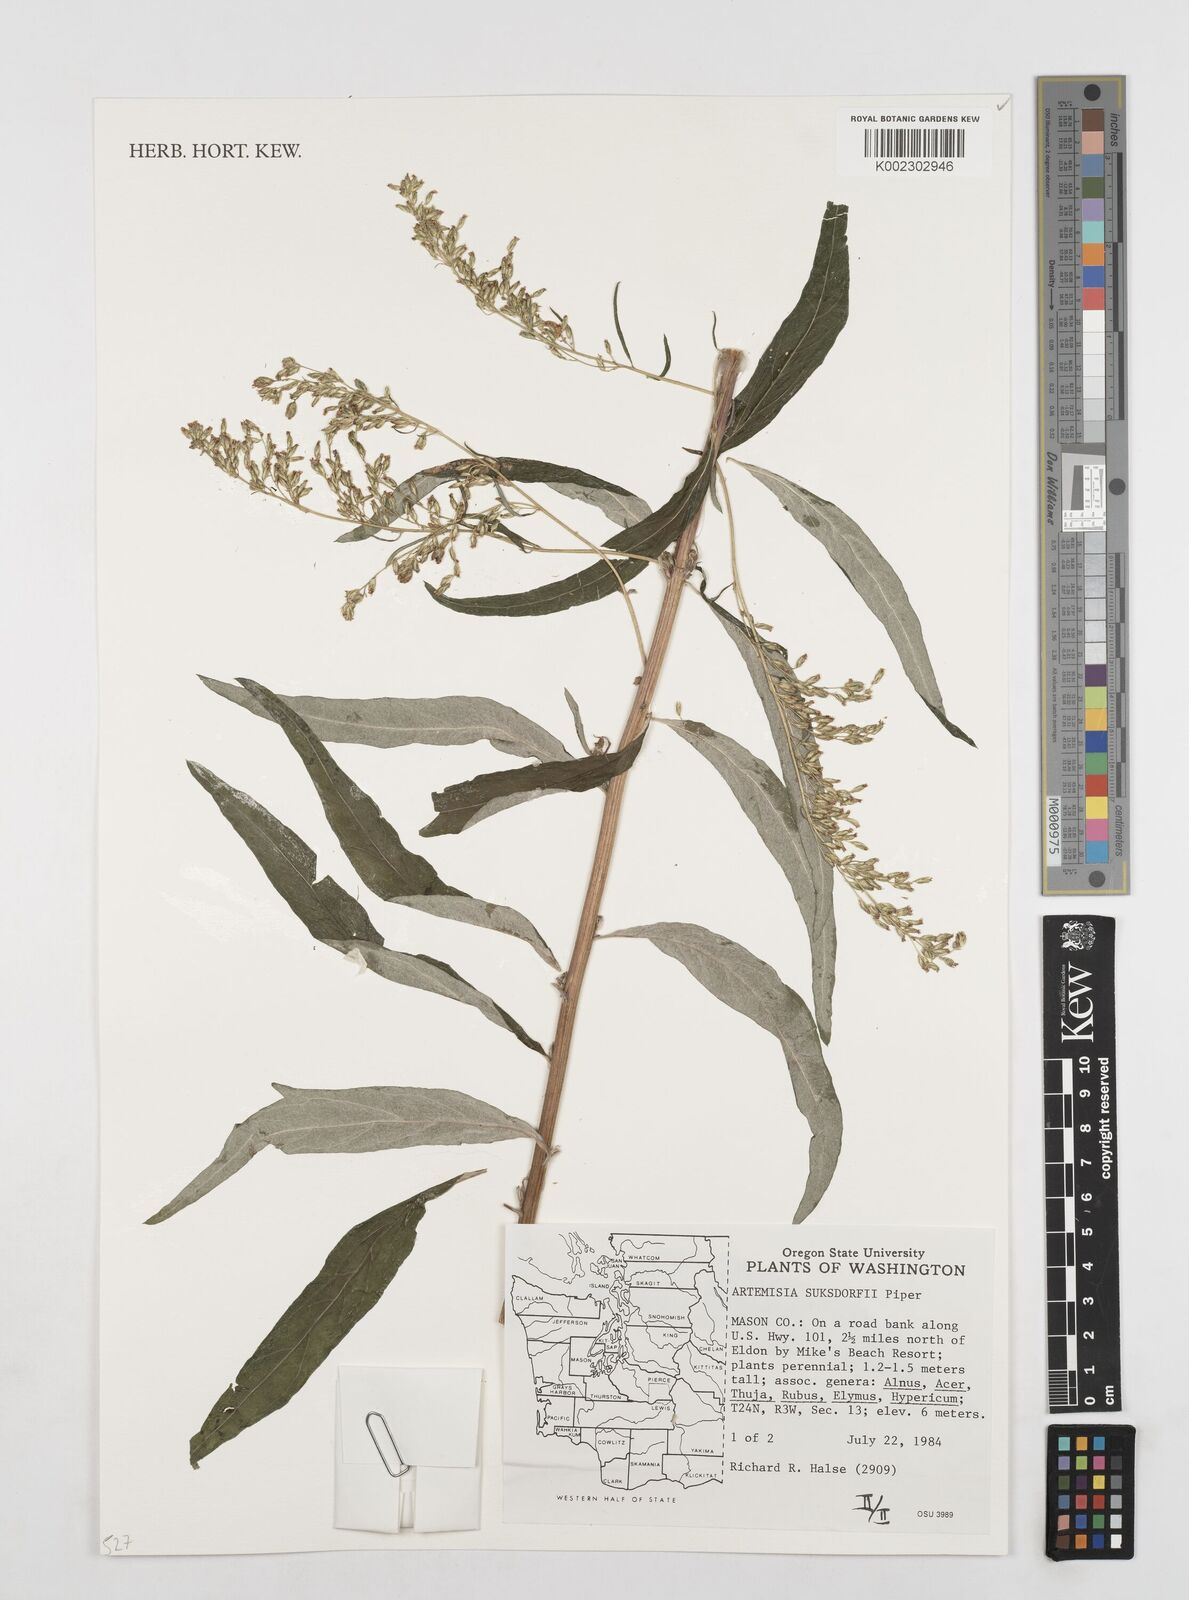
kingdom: Plantae
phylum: Tracheophyta
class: Magnoliopsida
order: Asterales
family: Asteraceae
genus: Artemisia
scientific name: Artemisia douglasiana
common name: Northwest mugwort
